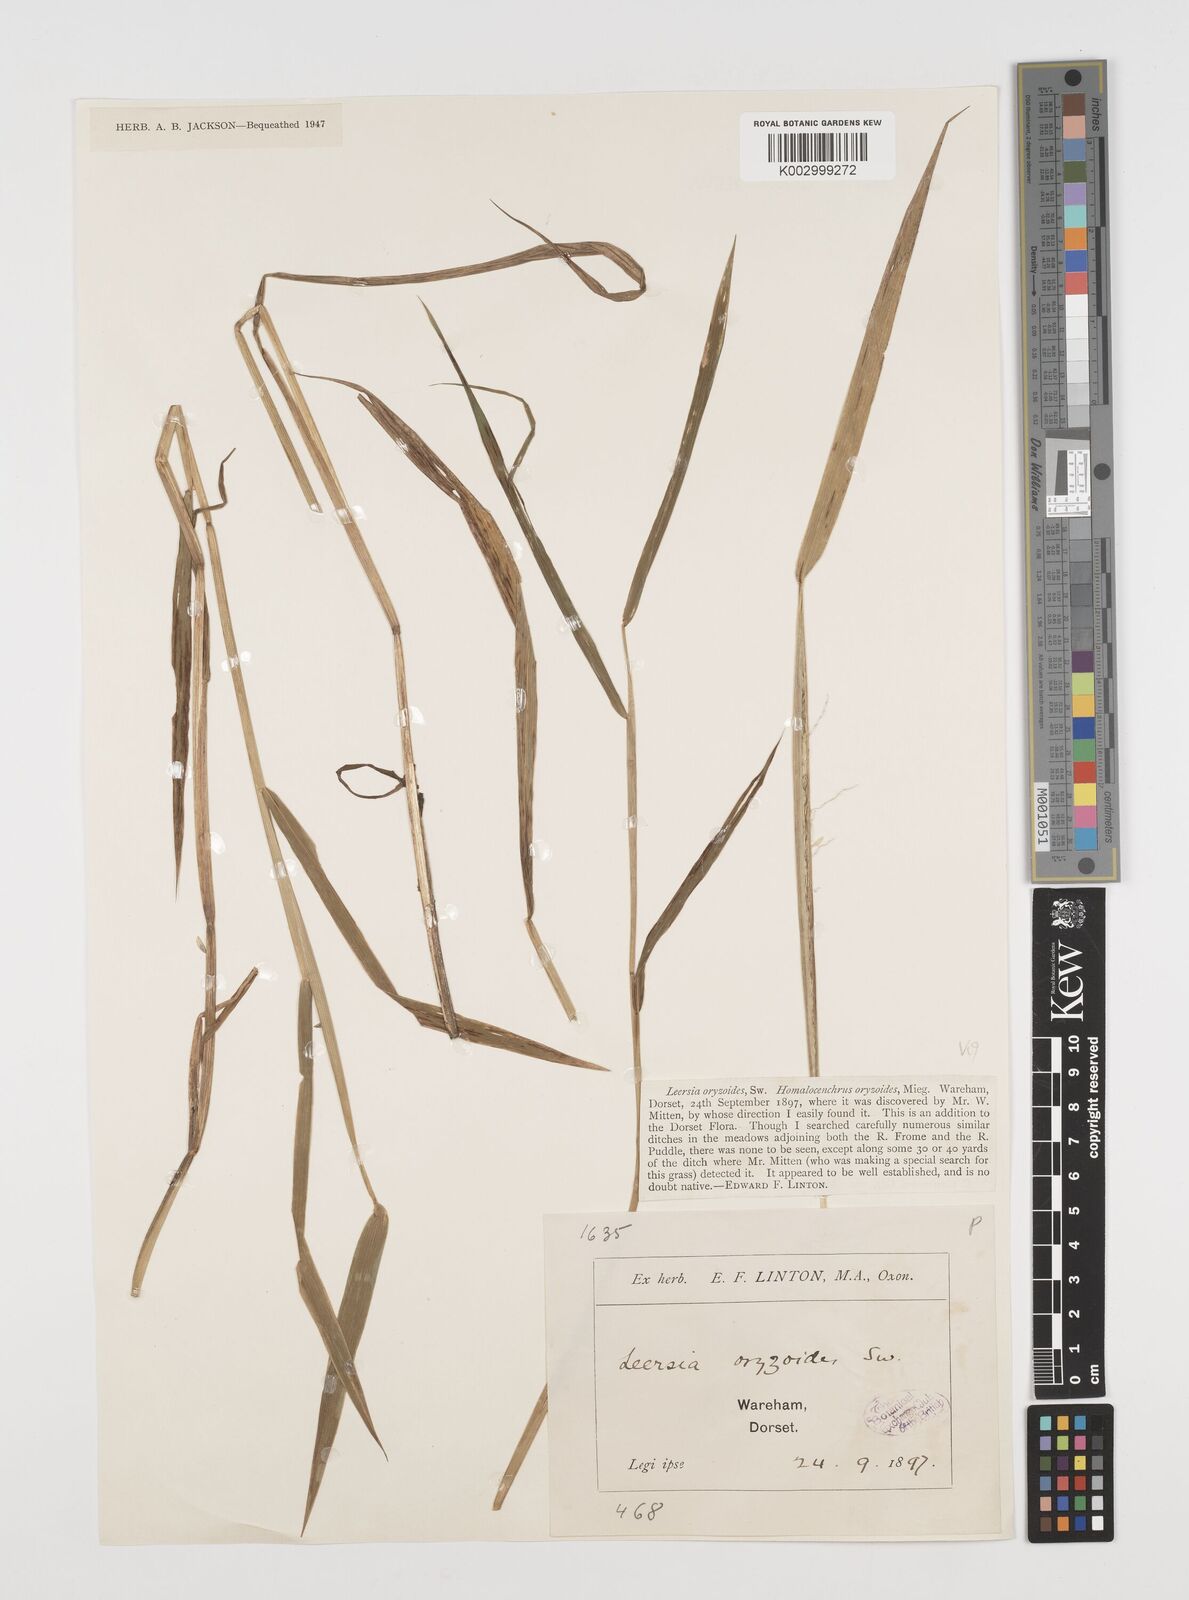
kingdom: Plantae
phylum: Tracheophyta
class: Liliopsida
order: Poales
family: Poaceae
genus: Leersia
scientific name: Leersia oryzoides
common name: Cut-grass
